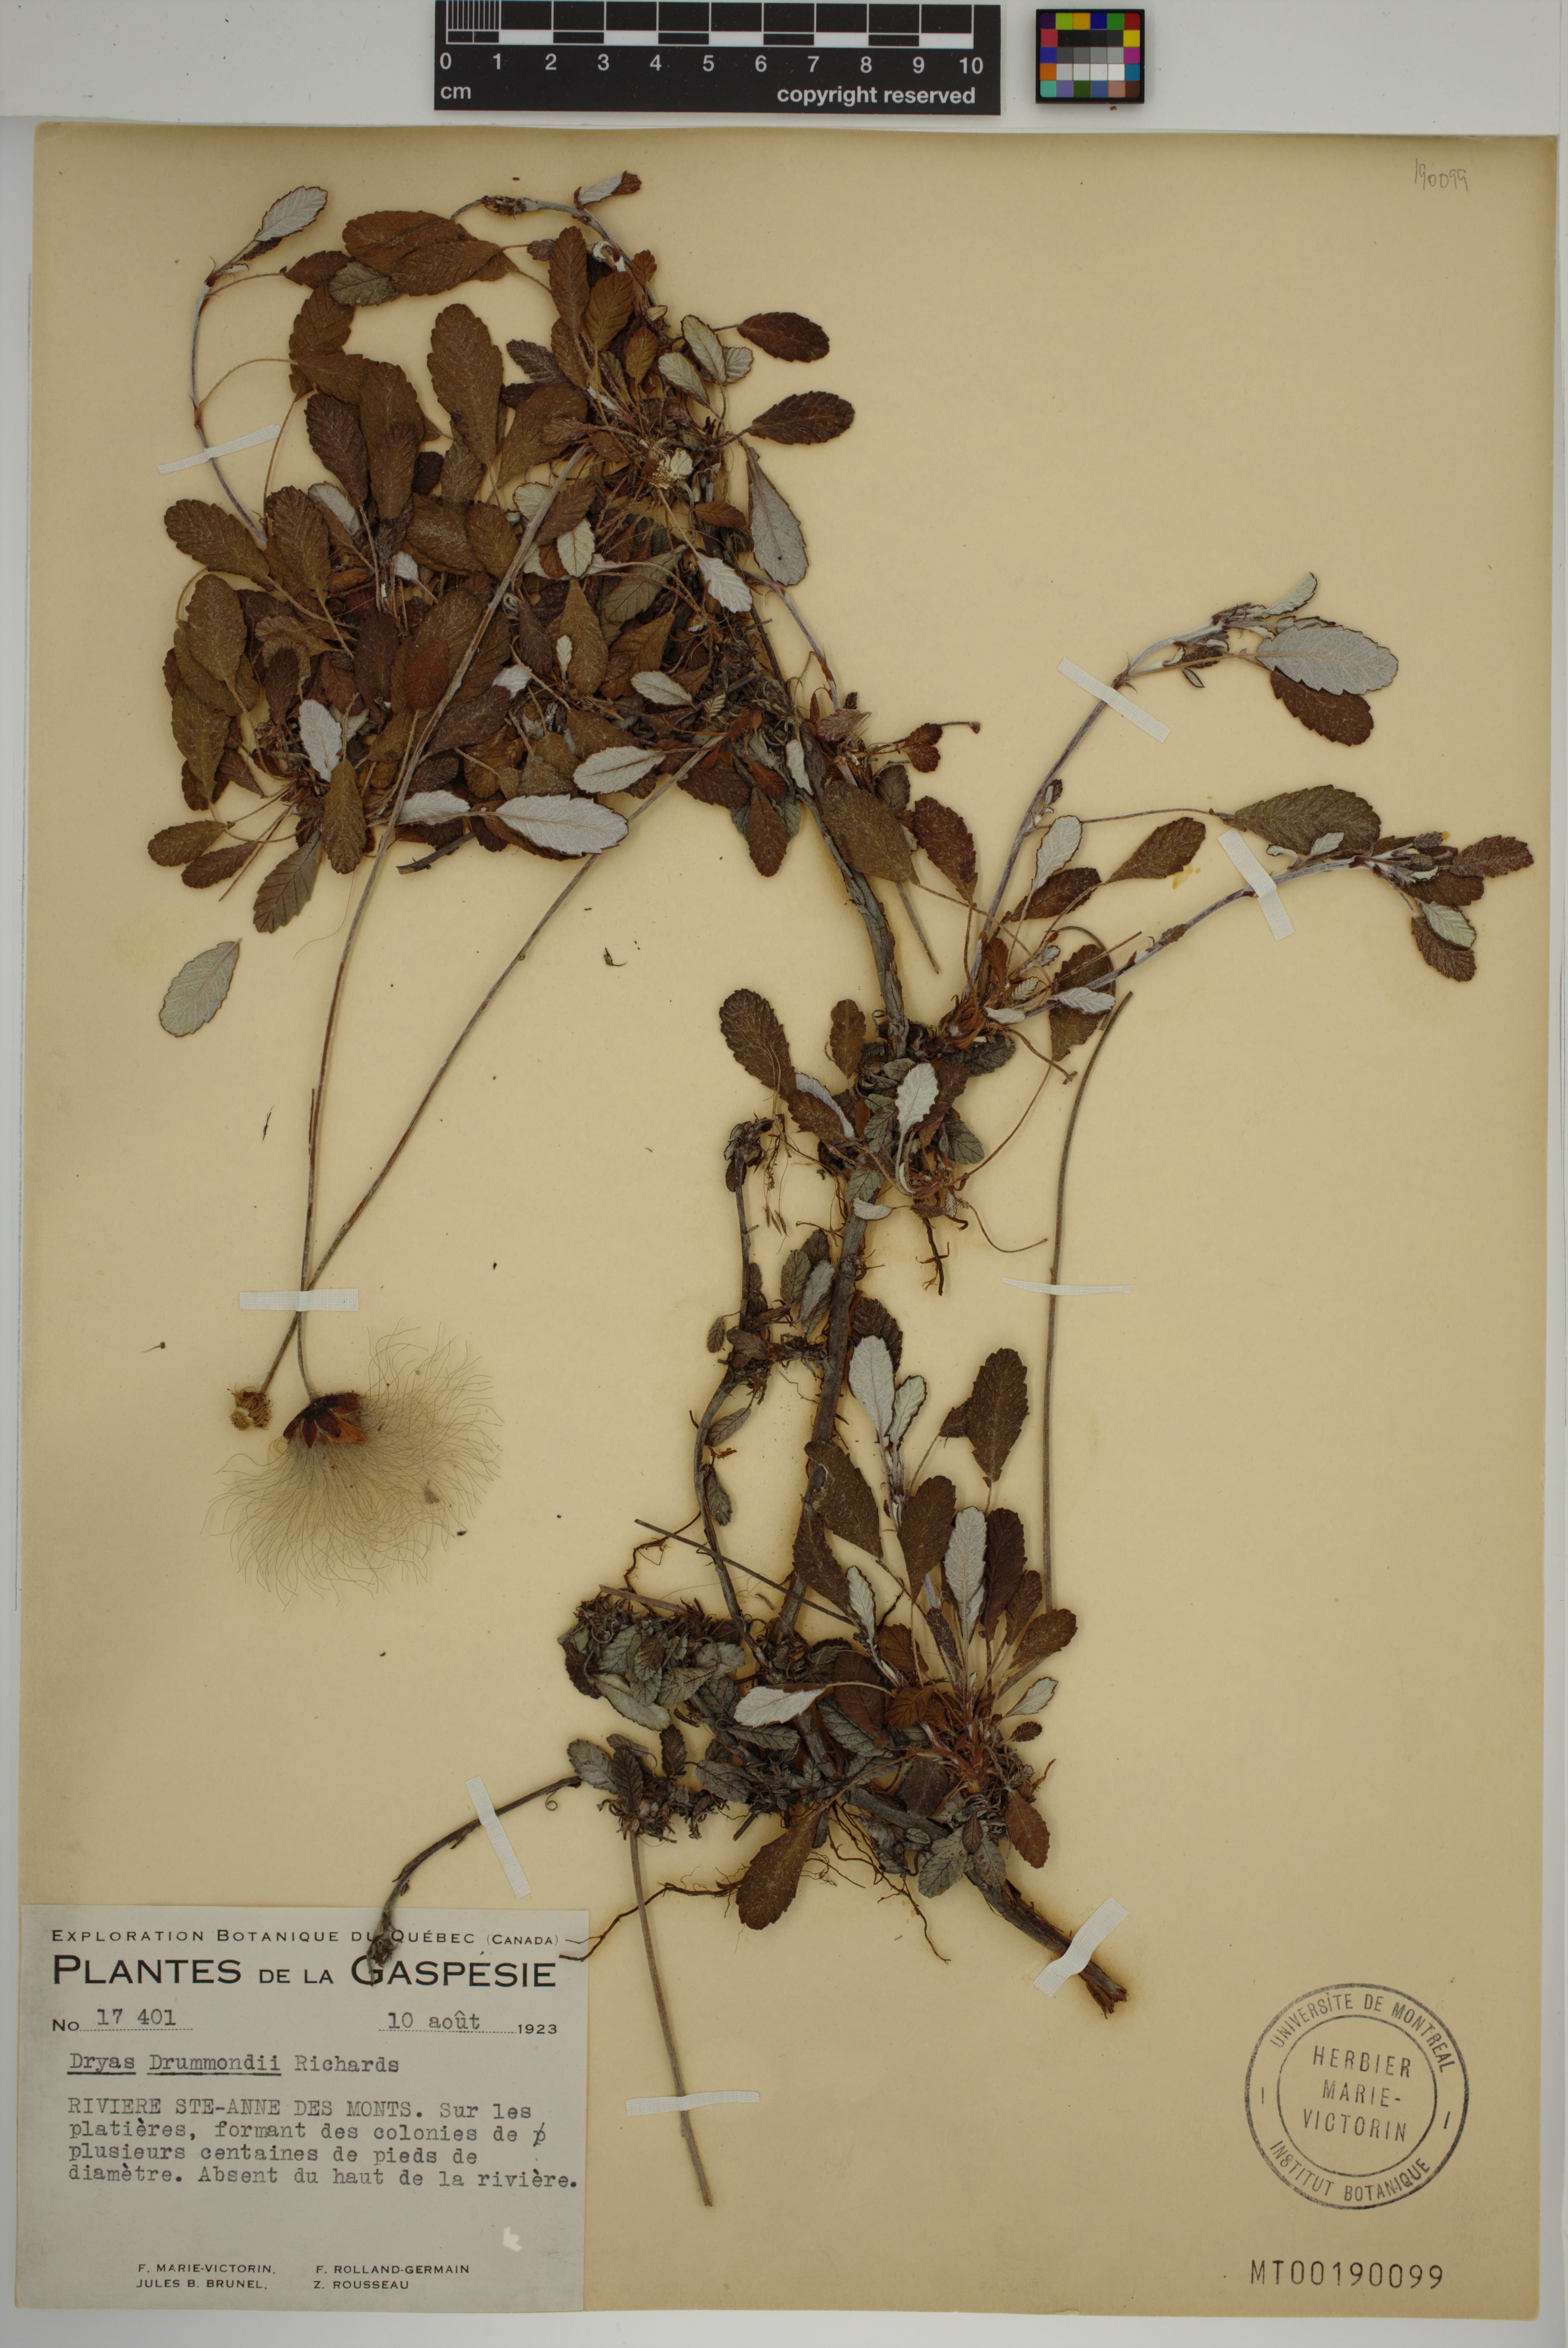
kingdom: Plantae
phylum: Tracheophyta
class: Magnoliopsida
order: Rosales
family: Rosaceae
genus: Dryas
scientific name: Dryas drummondii
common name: Drummond's dryad
